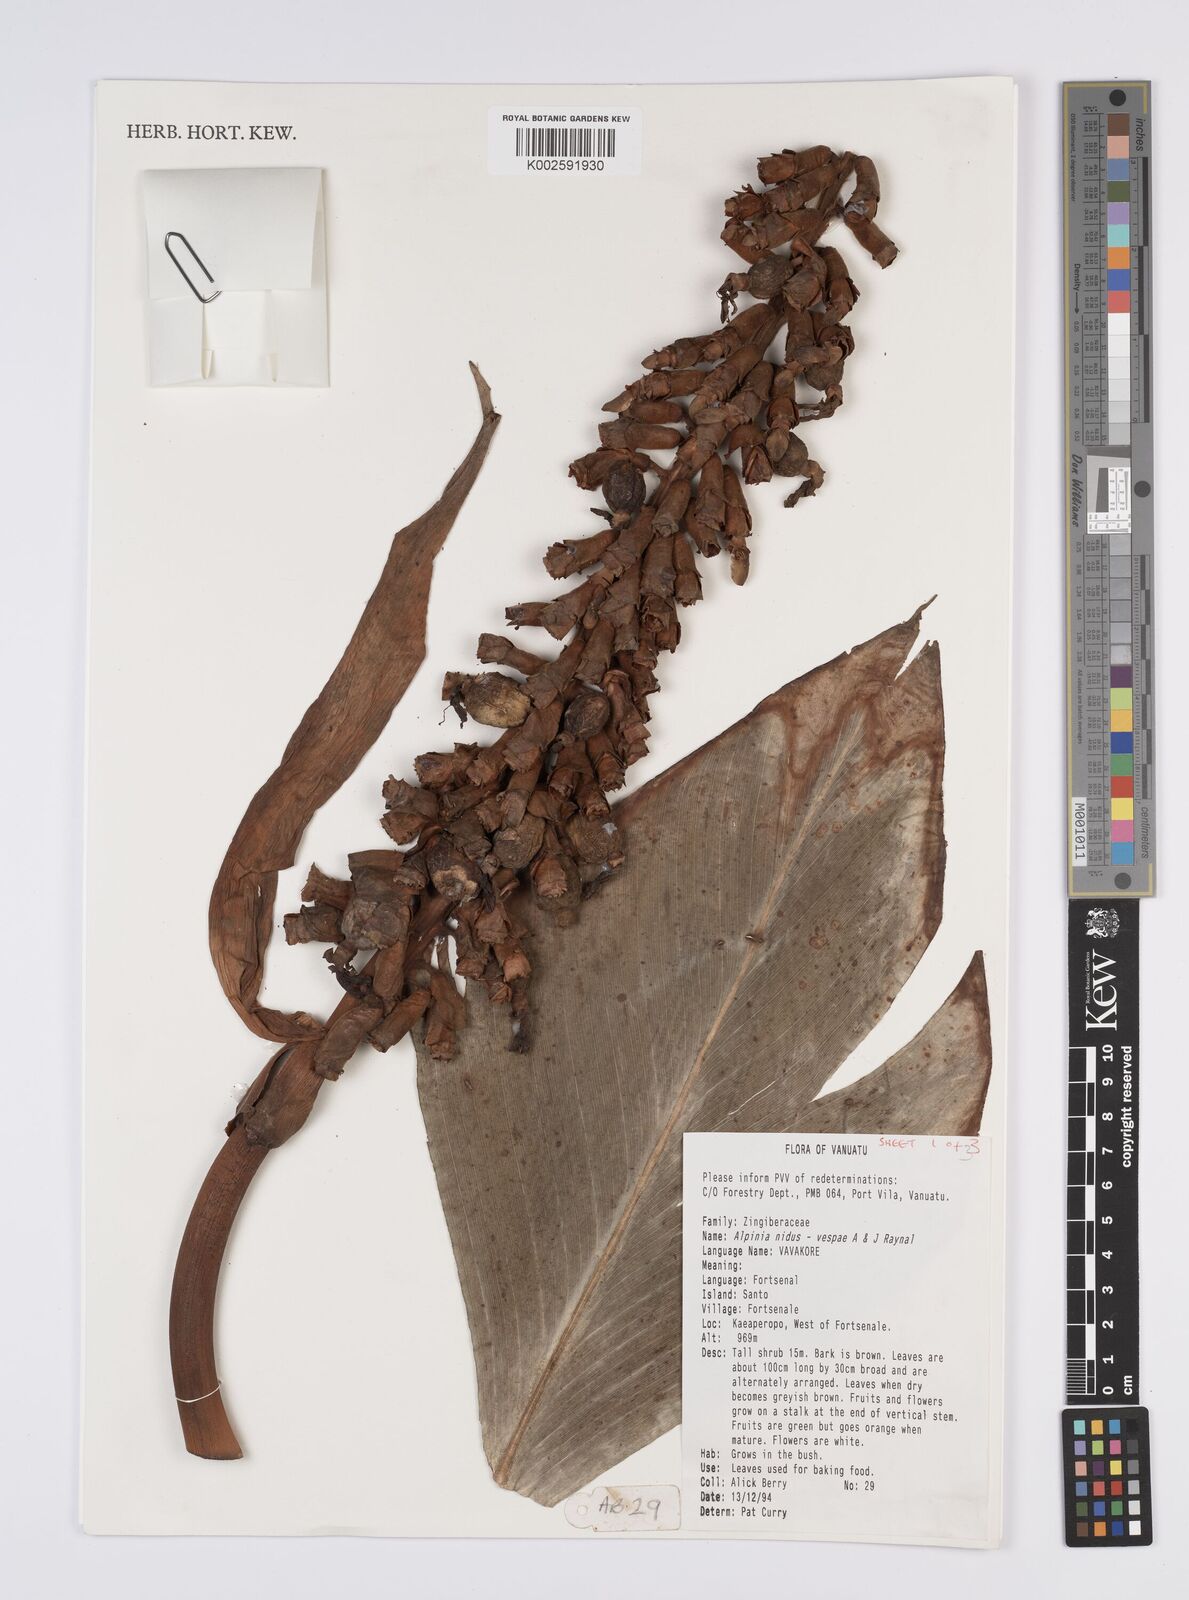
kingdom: Plantae
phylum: Tracheophyta
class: Liliopsida
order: Zingiberales
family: Zingiberaceae
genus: Alpinia
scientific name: Alpinia nidus-vespae
